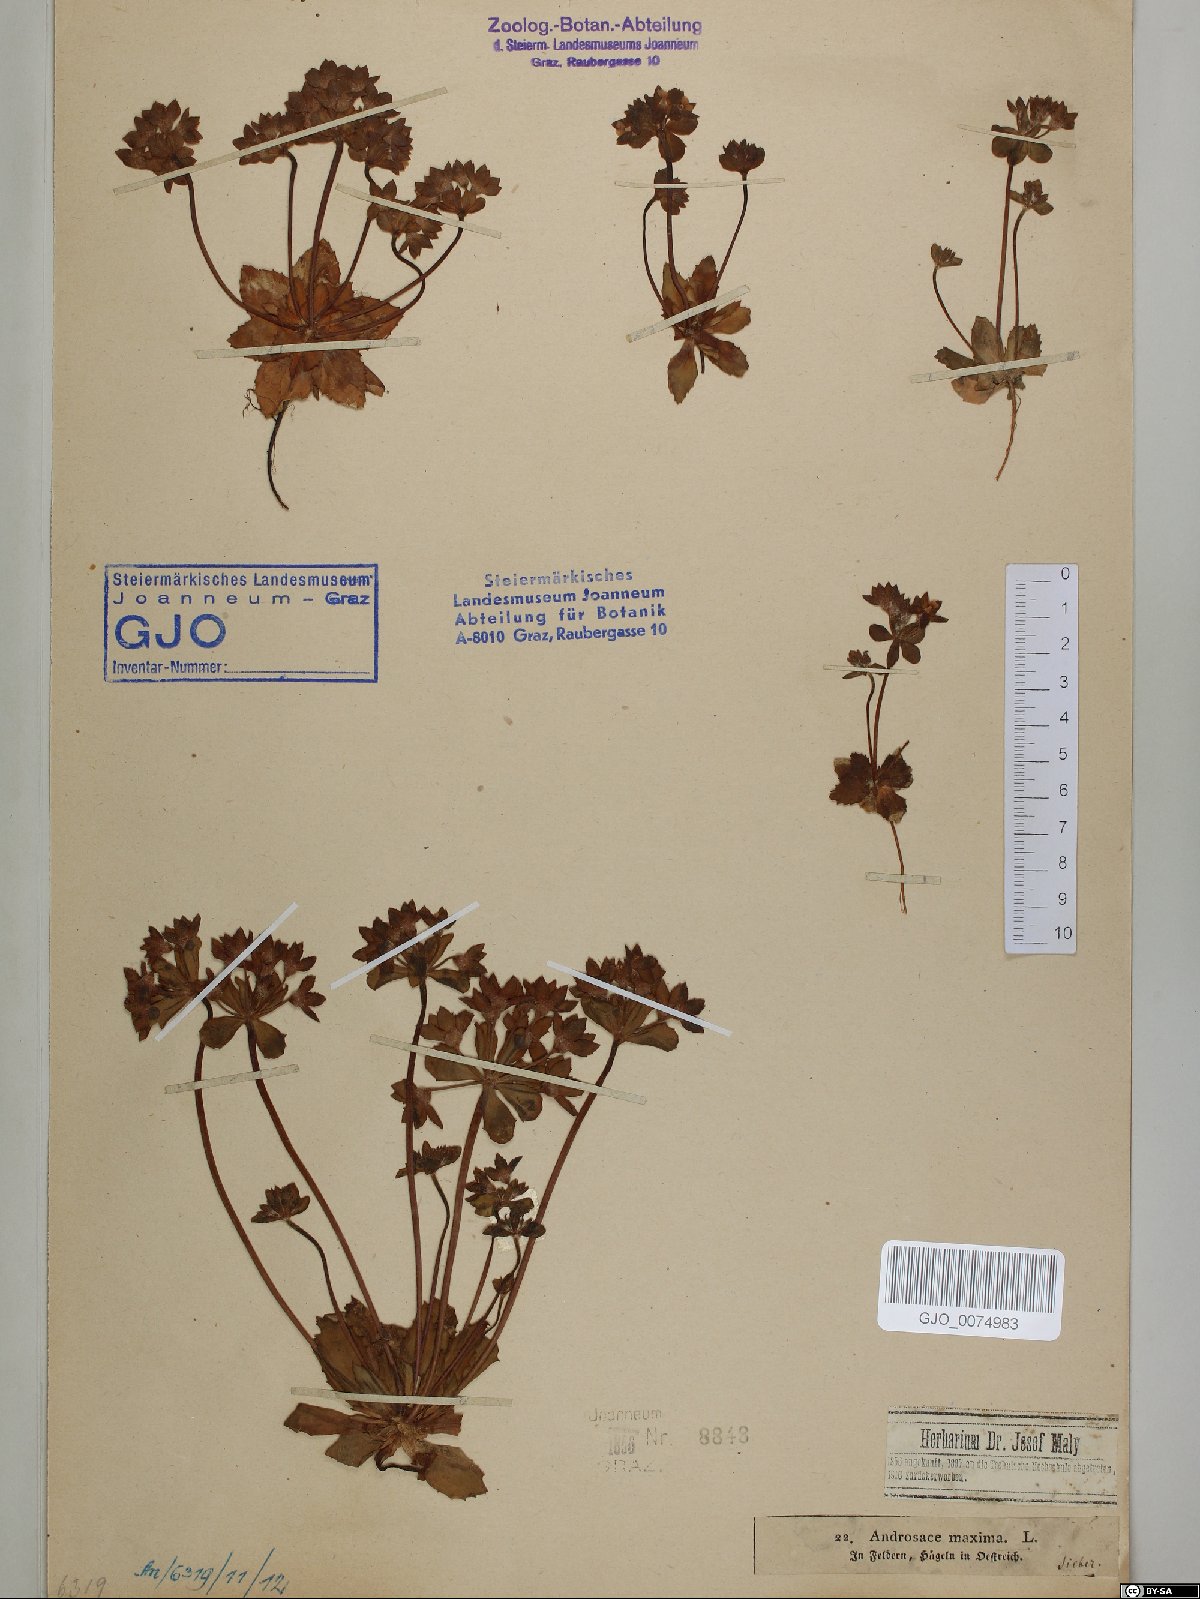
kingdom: Plantae
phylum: Tracheophyta
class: Magnoliopsida
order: Ericales
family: Primulaceae
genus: Androsace
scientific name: Androsace maxima
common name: Annual androsace
